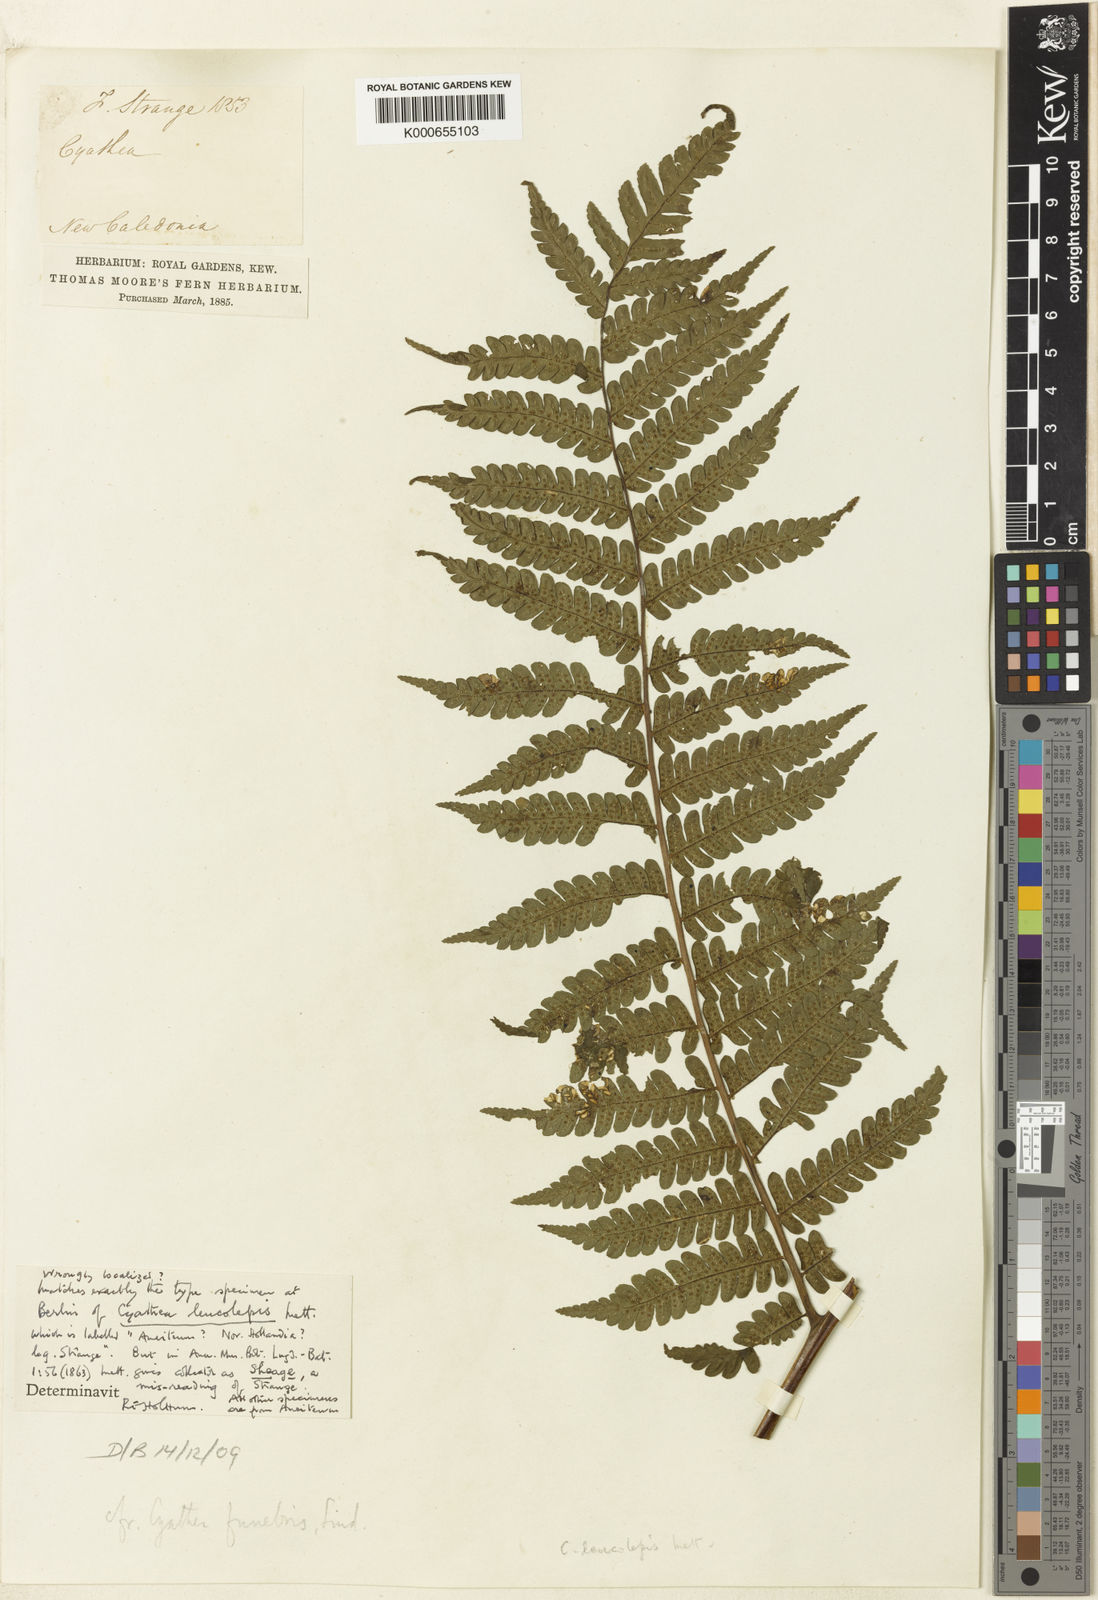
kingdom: Plantae
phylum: Tracheophyta
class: Polypodiopsida
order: Cyatheales
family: Cyatheaceae
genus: Sphaeropteris
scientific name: Sphaeropteris leucolepis
